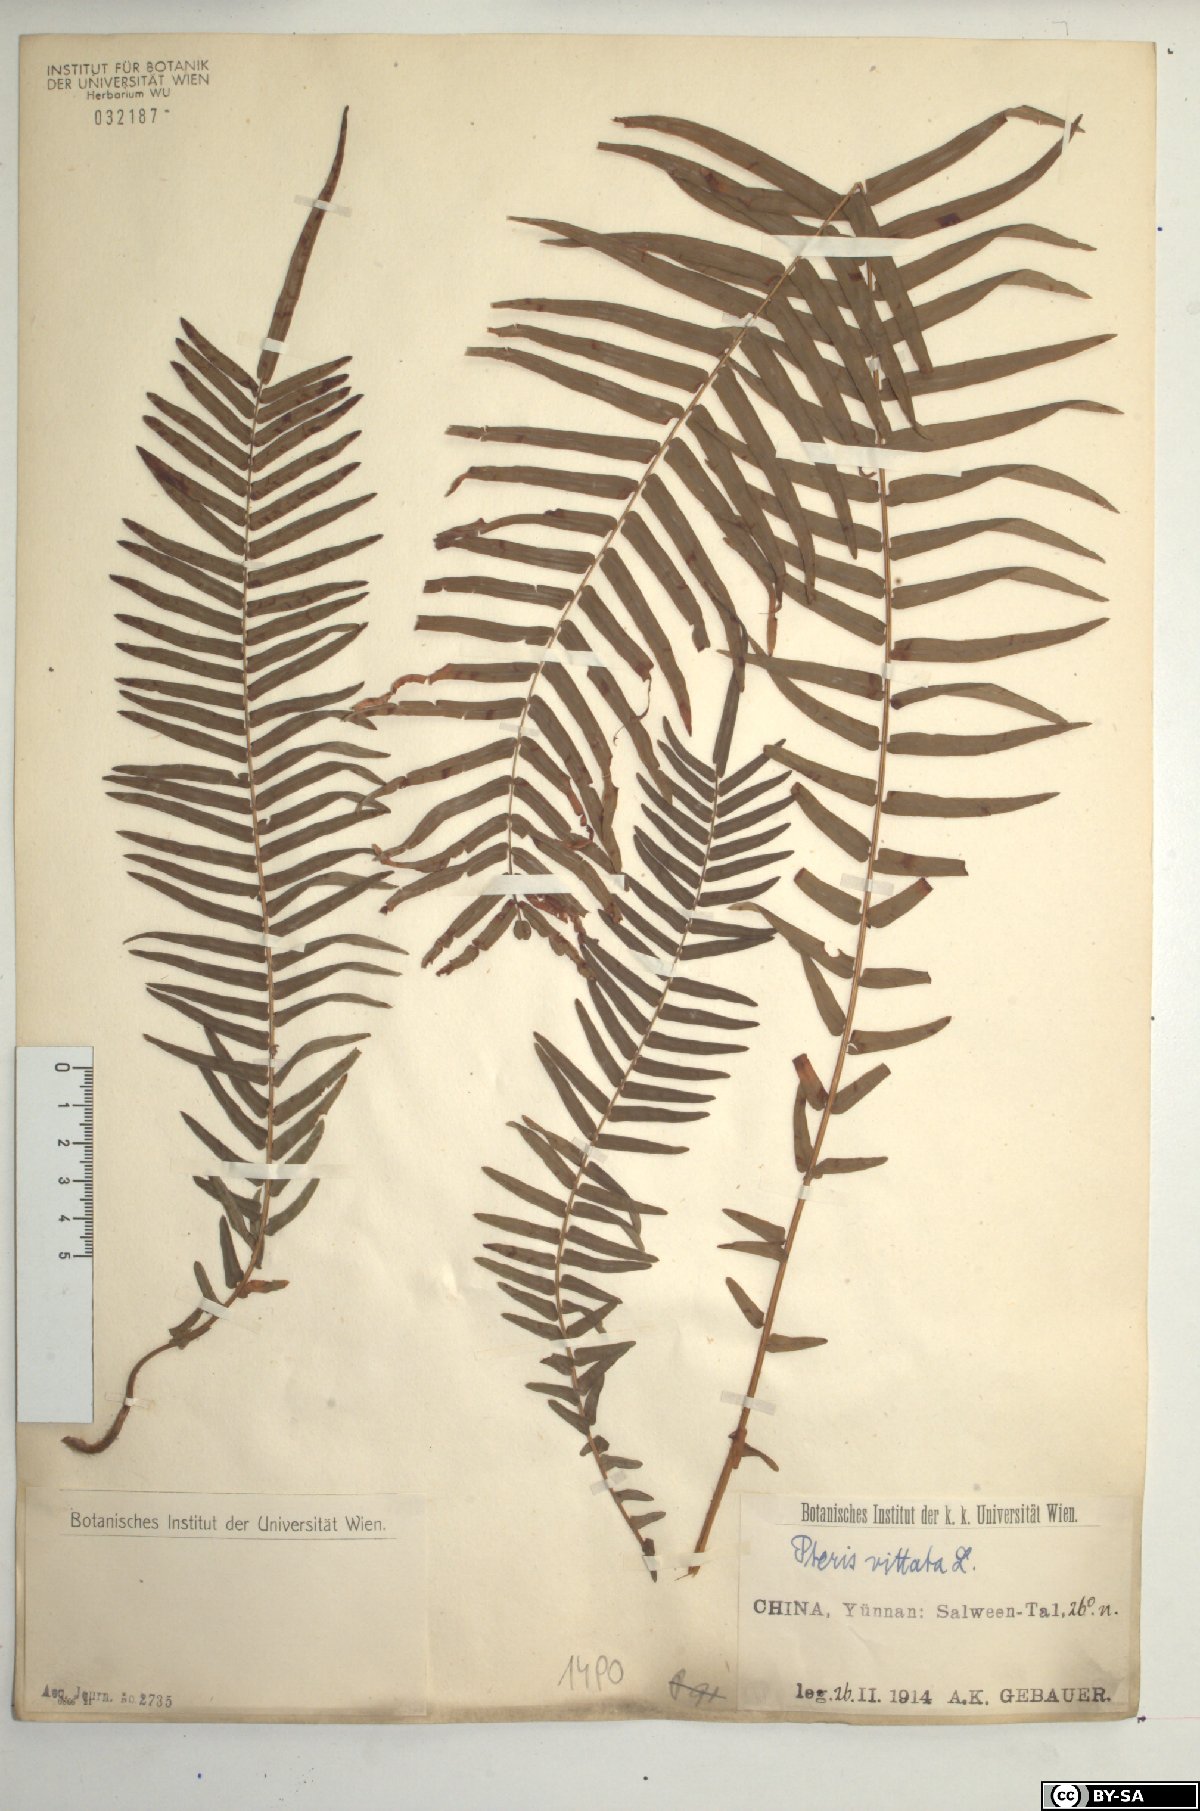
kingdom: Plantae
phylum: Tracheophyta
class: Polypodiopsida
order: Polypodiales
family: Pteridaceae
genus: Pteris
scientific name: Pteris vittata
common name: Ladder brake
